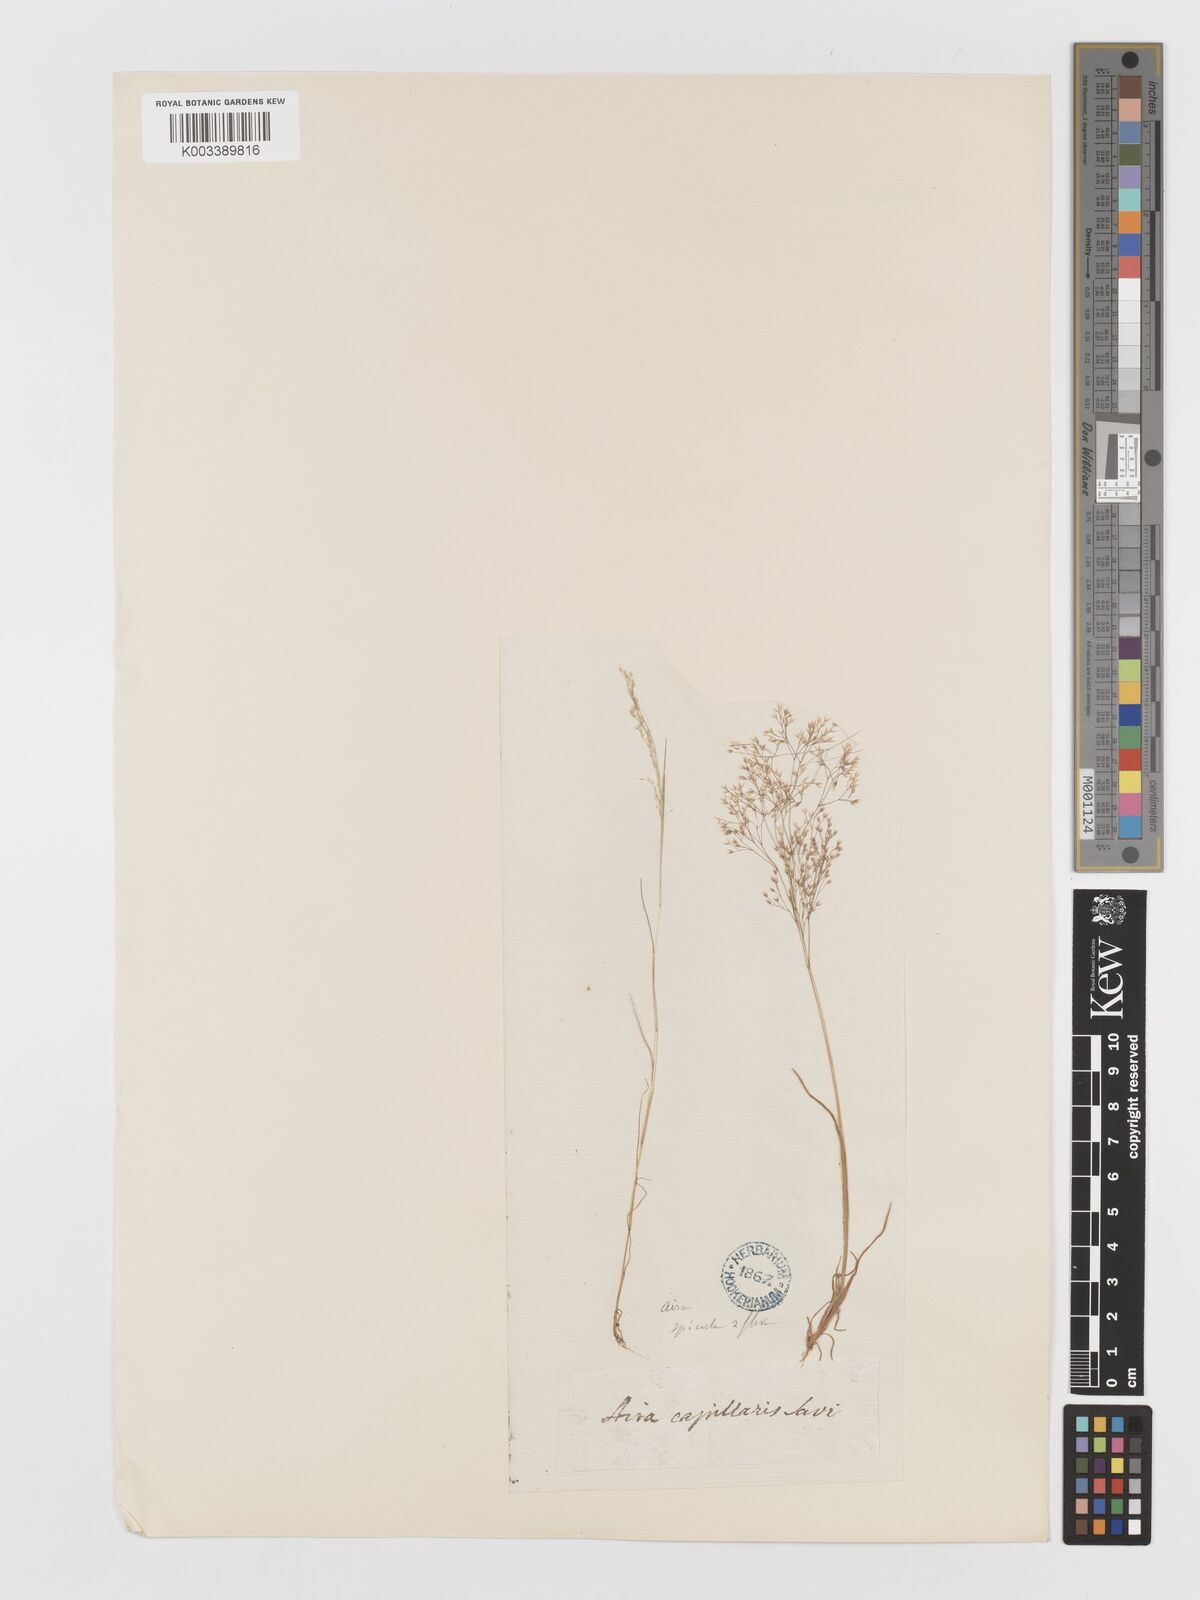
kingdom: Plantae
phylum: Tracheophyta
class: Liliopsida
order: Poales
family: Poaceae
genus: Aira
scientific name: Aira elegans
